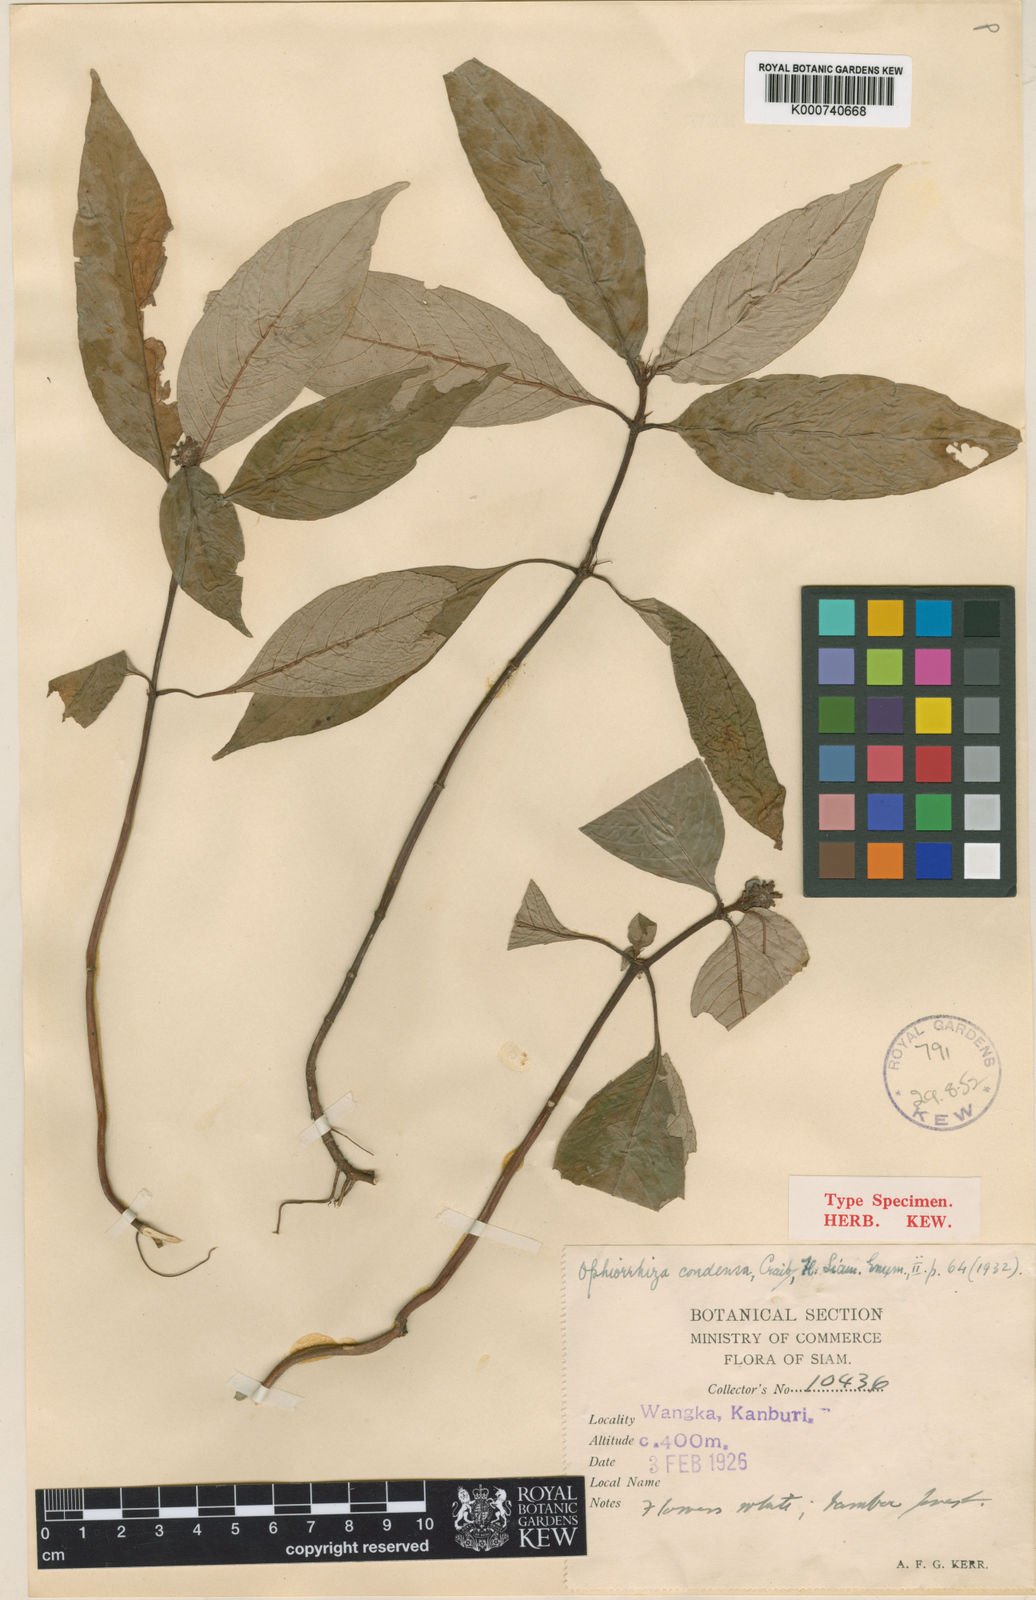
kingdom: Plantae
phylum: Tracheophyta
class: Magnoliopsida
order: Gentianales
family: Rubiaceae
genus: Ophiorrhiza
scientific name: Ophiorrhiza erubescens
